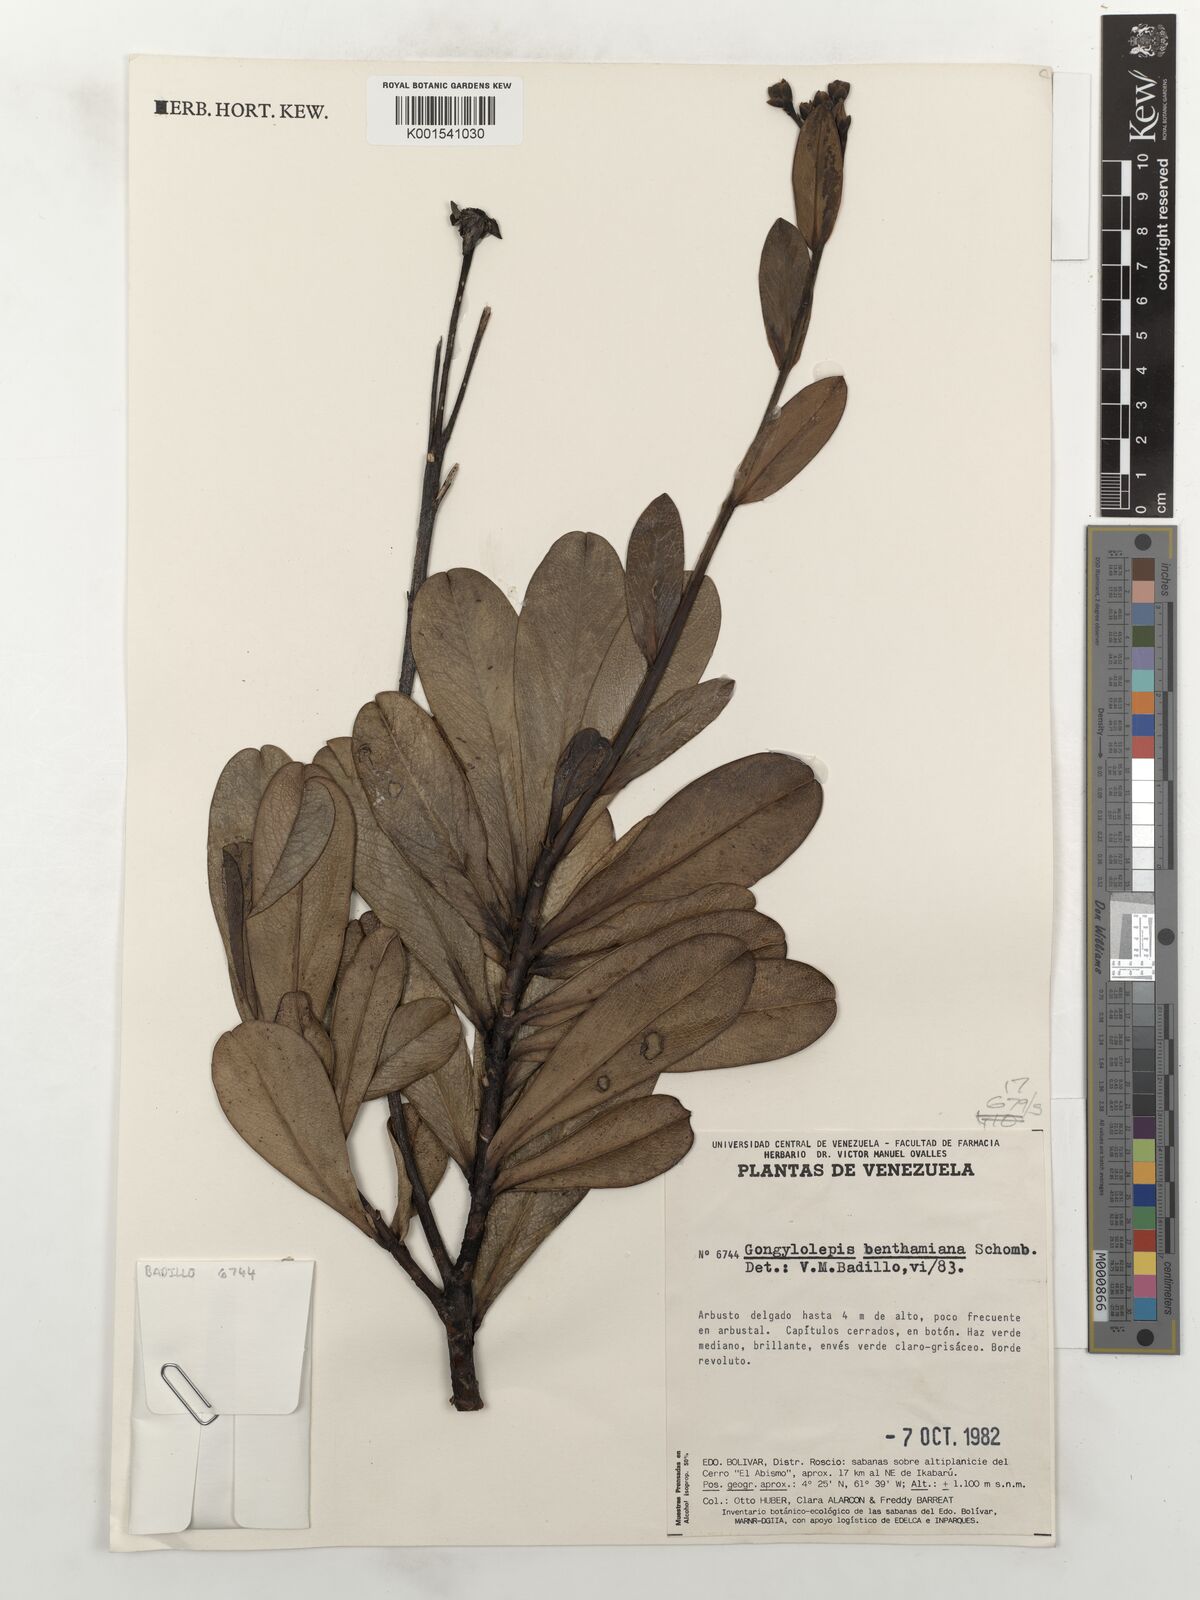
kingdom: Plantae
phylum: Tracheophyta
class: Magnoliopsida
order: Asterales
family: Asteraceae
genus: Gongylolepis
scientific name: Gongylolepis benthamiana
